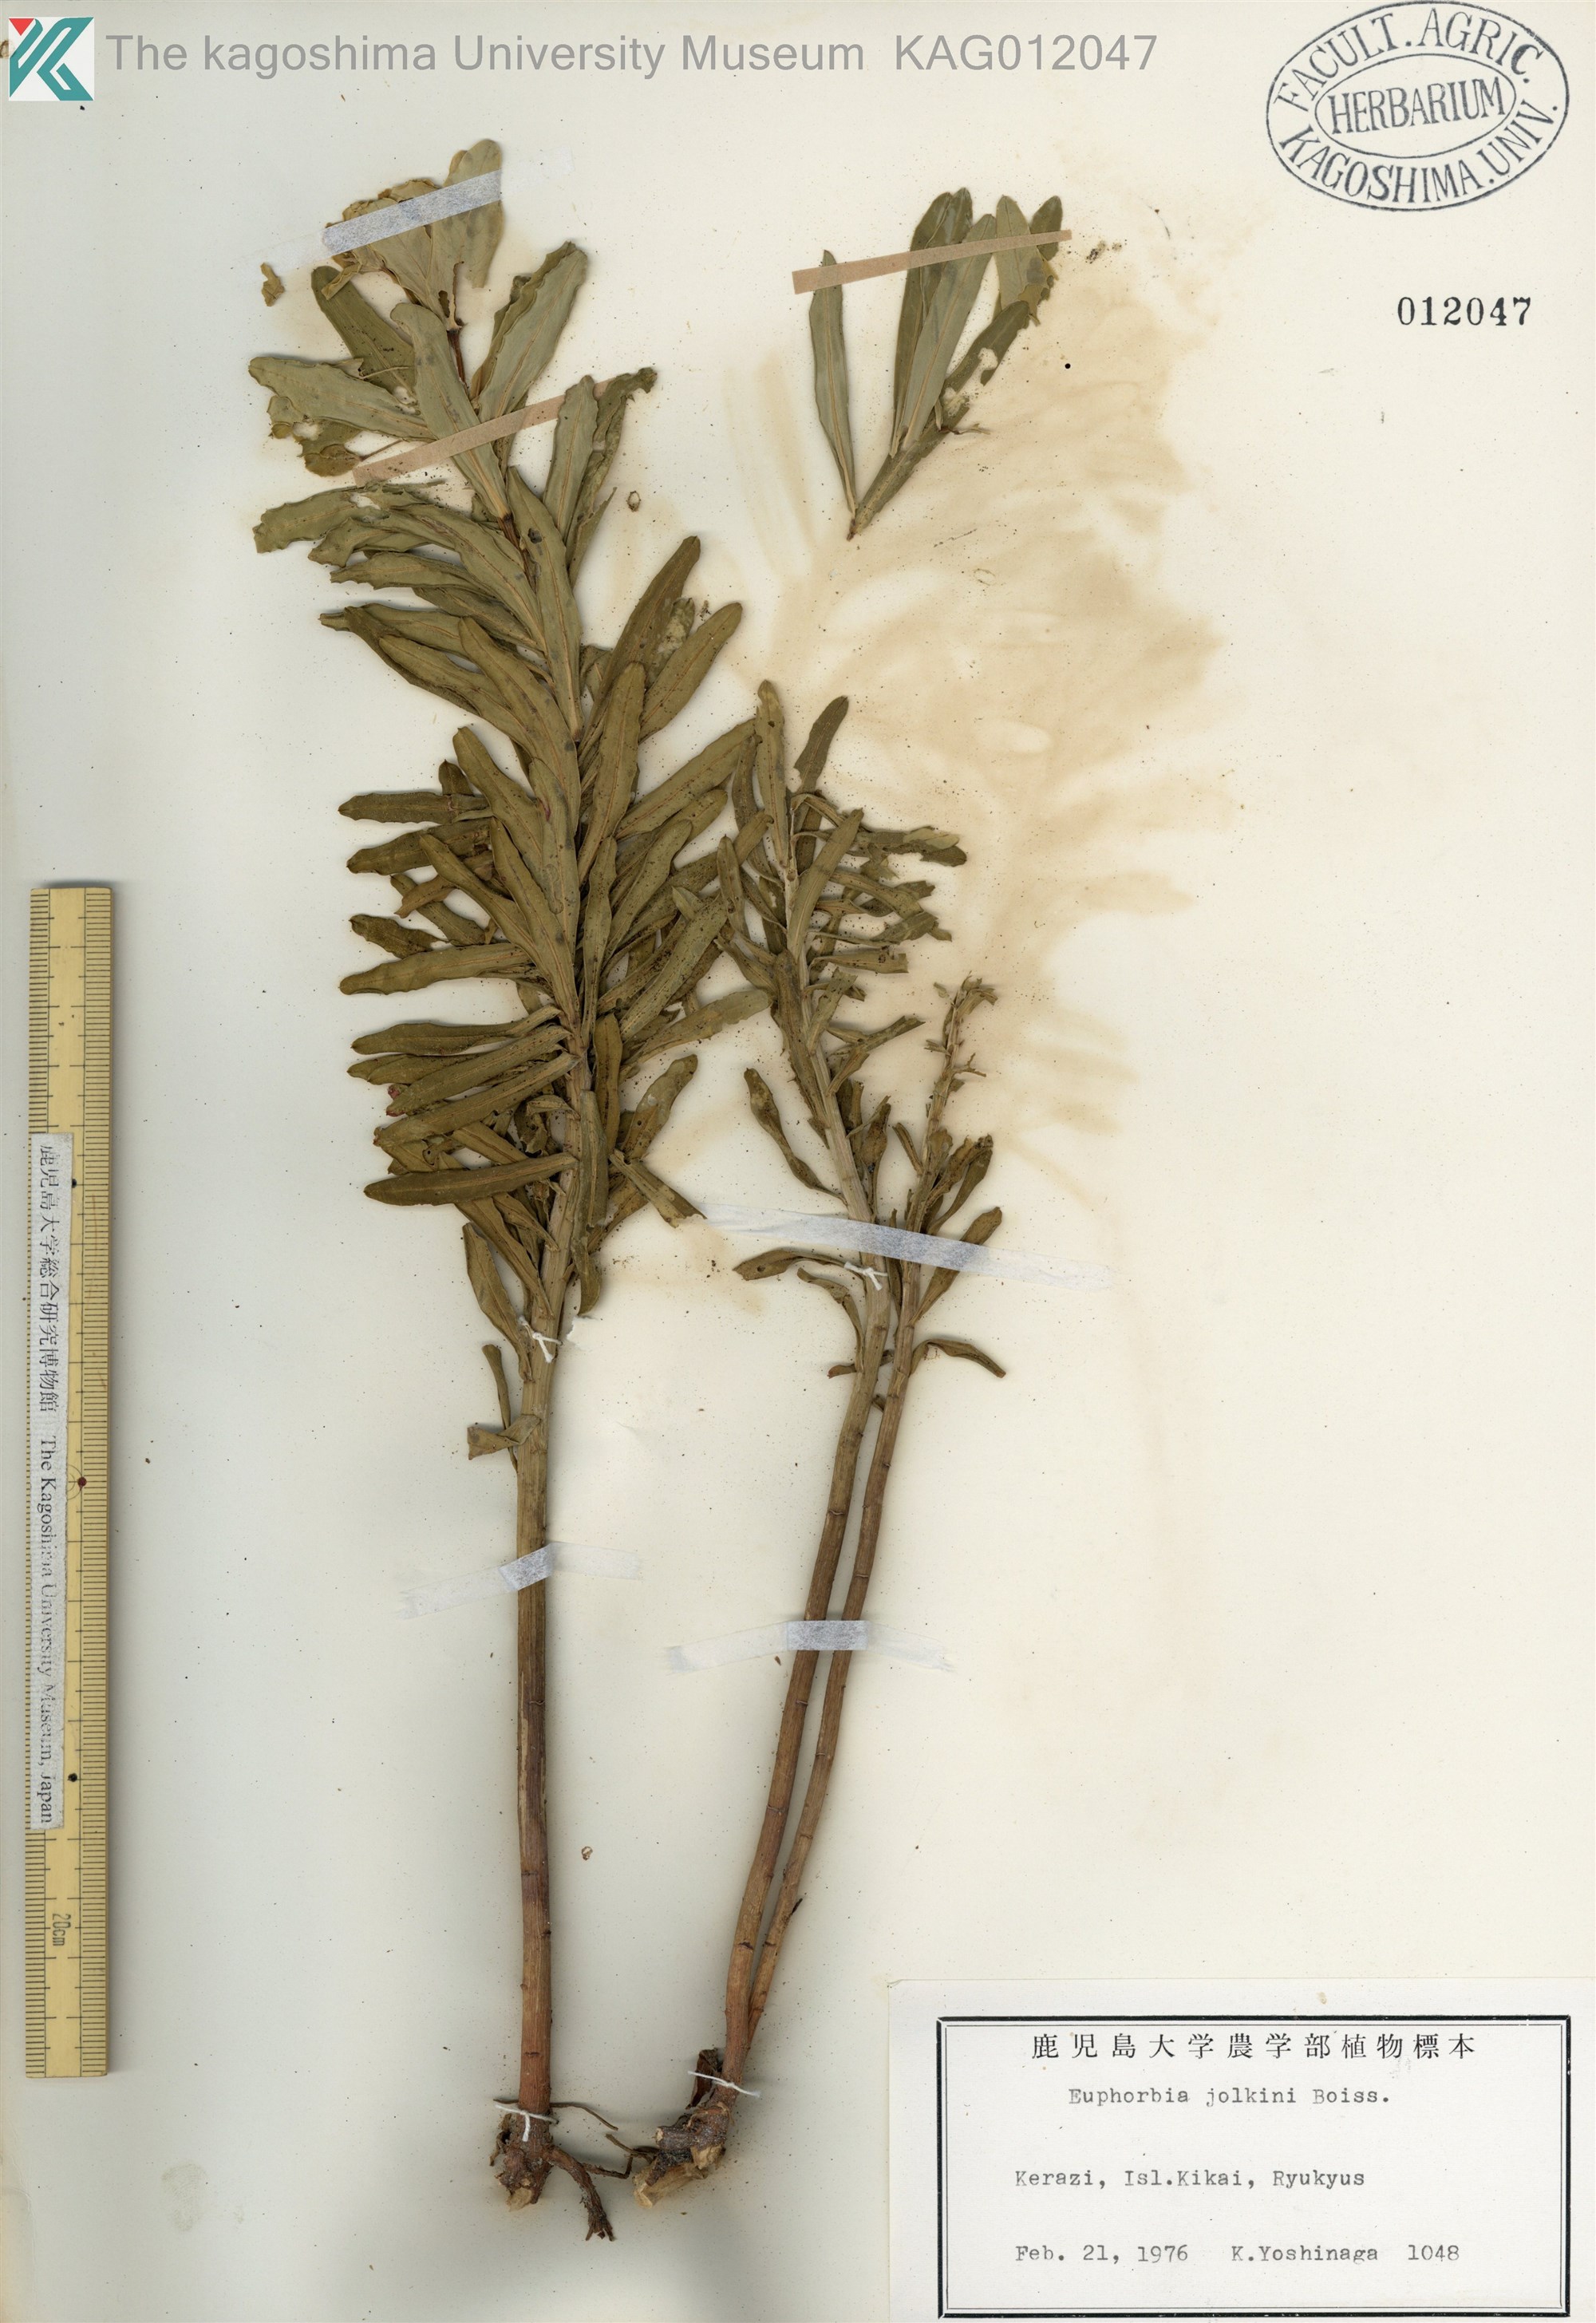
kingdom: Plantae
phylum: Tracheophyta
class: Magnoliopsida
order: Malpighiales
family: Euphorbiaceae
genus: Euphorbia
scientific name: Euphorbia jolkinii
